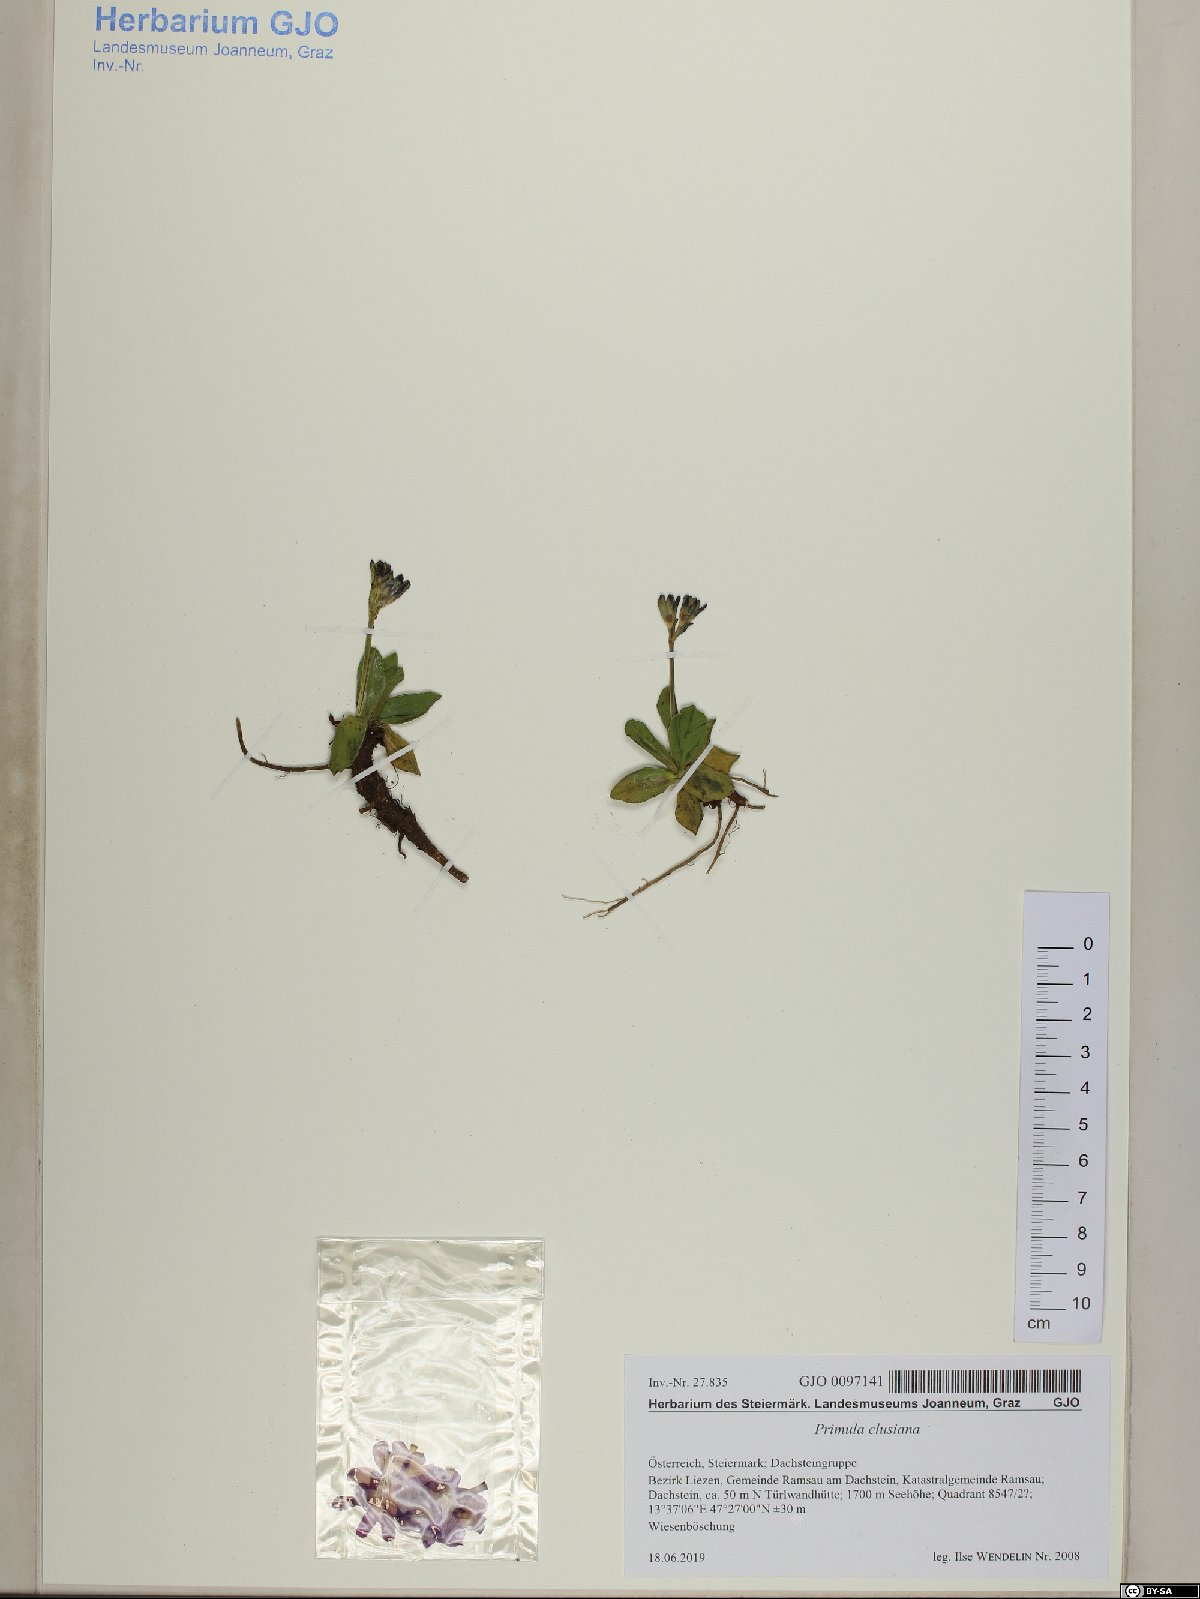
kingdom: Plantae
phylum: Tracheophyta
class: Magnoliopsida
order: Ericales
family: Primulaceae
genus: Primula
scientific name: Primula clusiana
